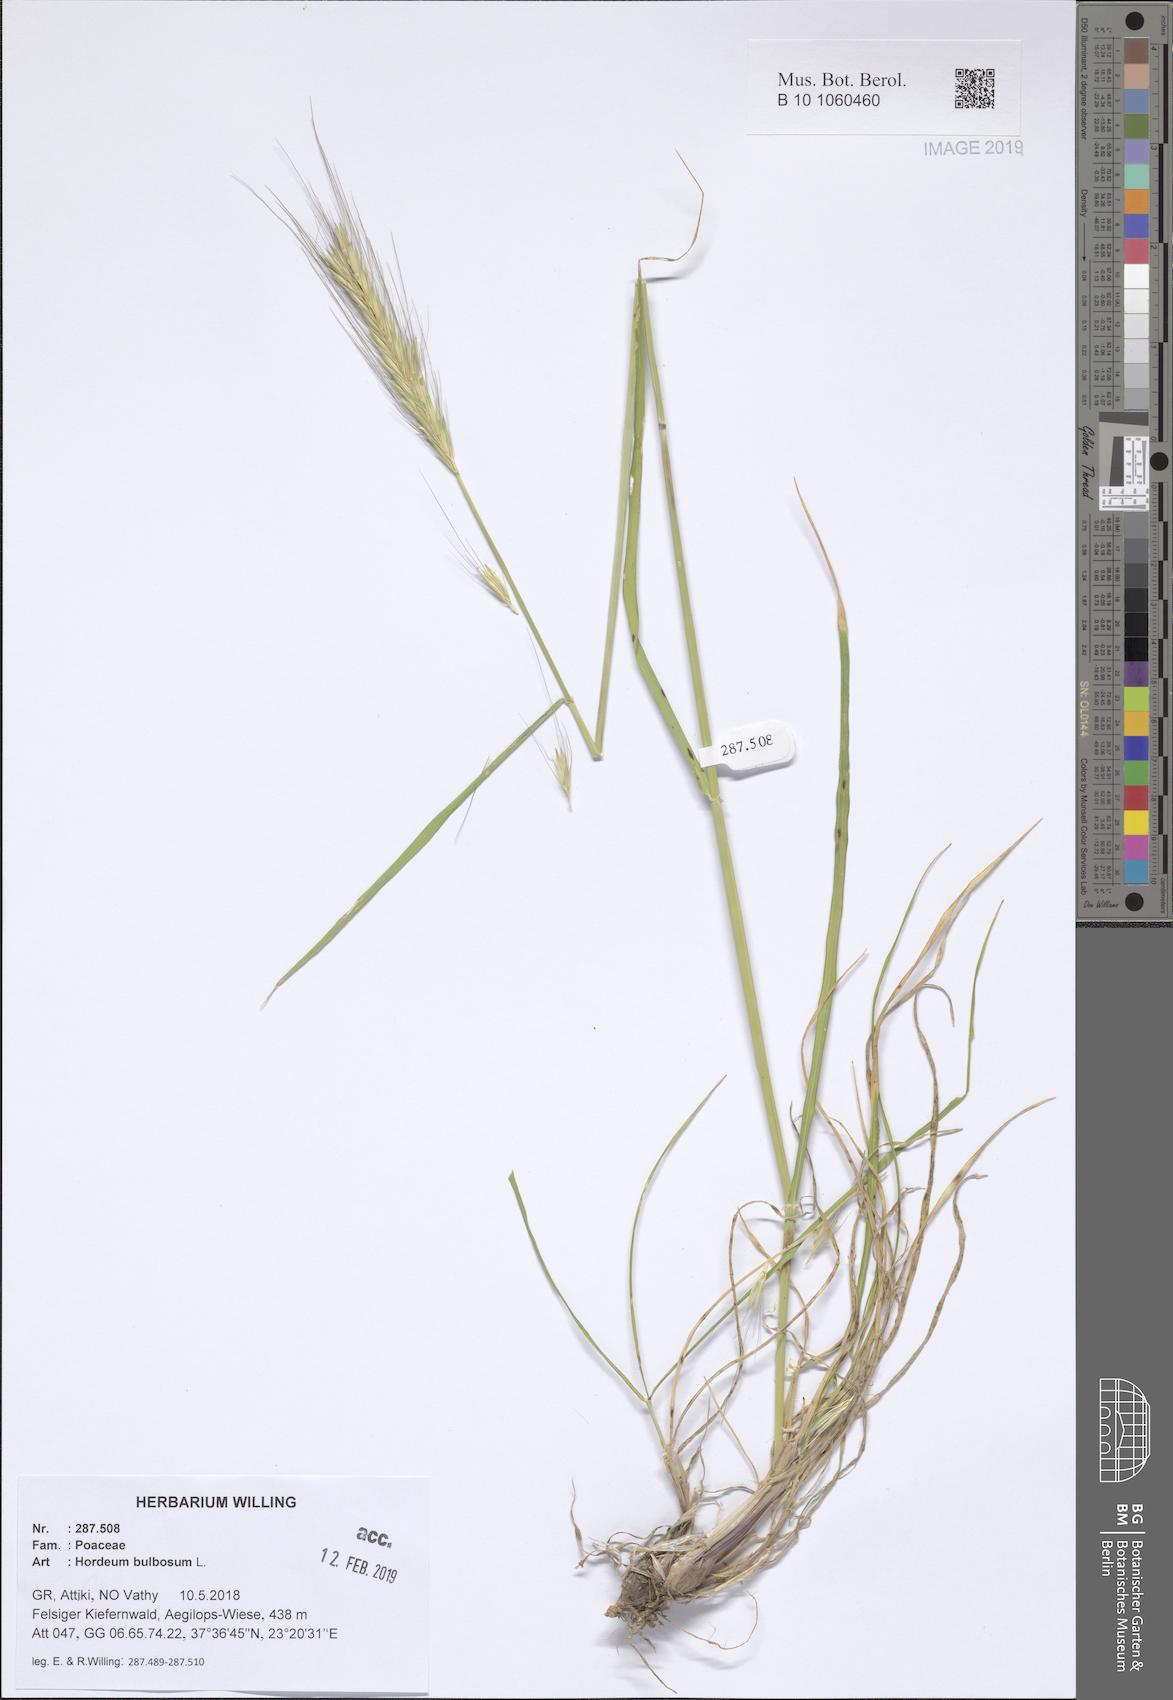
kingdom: Plantae
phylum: Tracheophyta
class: Liliopsida
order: Poales
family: Poaceae
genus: Hordeum
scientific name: Hordeum bulbosum
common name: Bulbous barley
